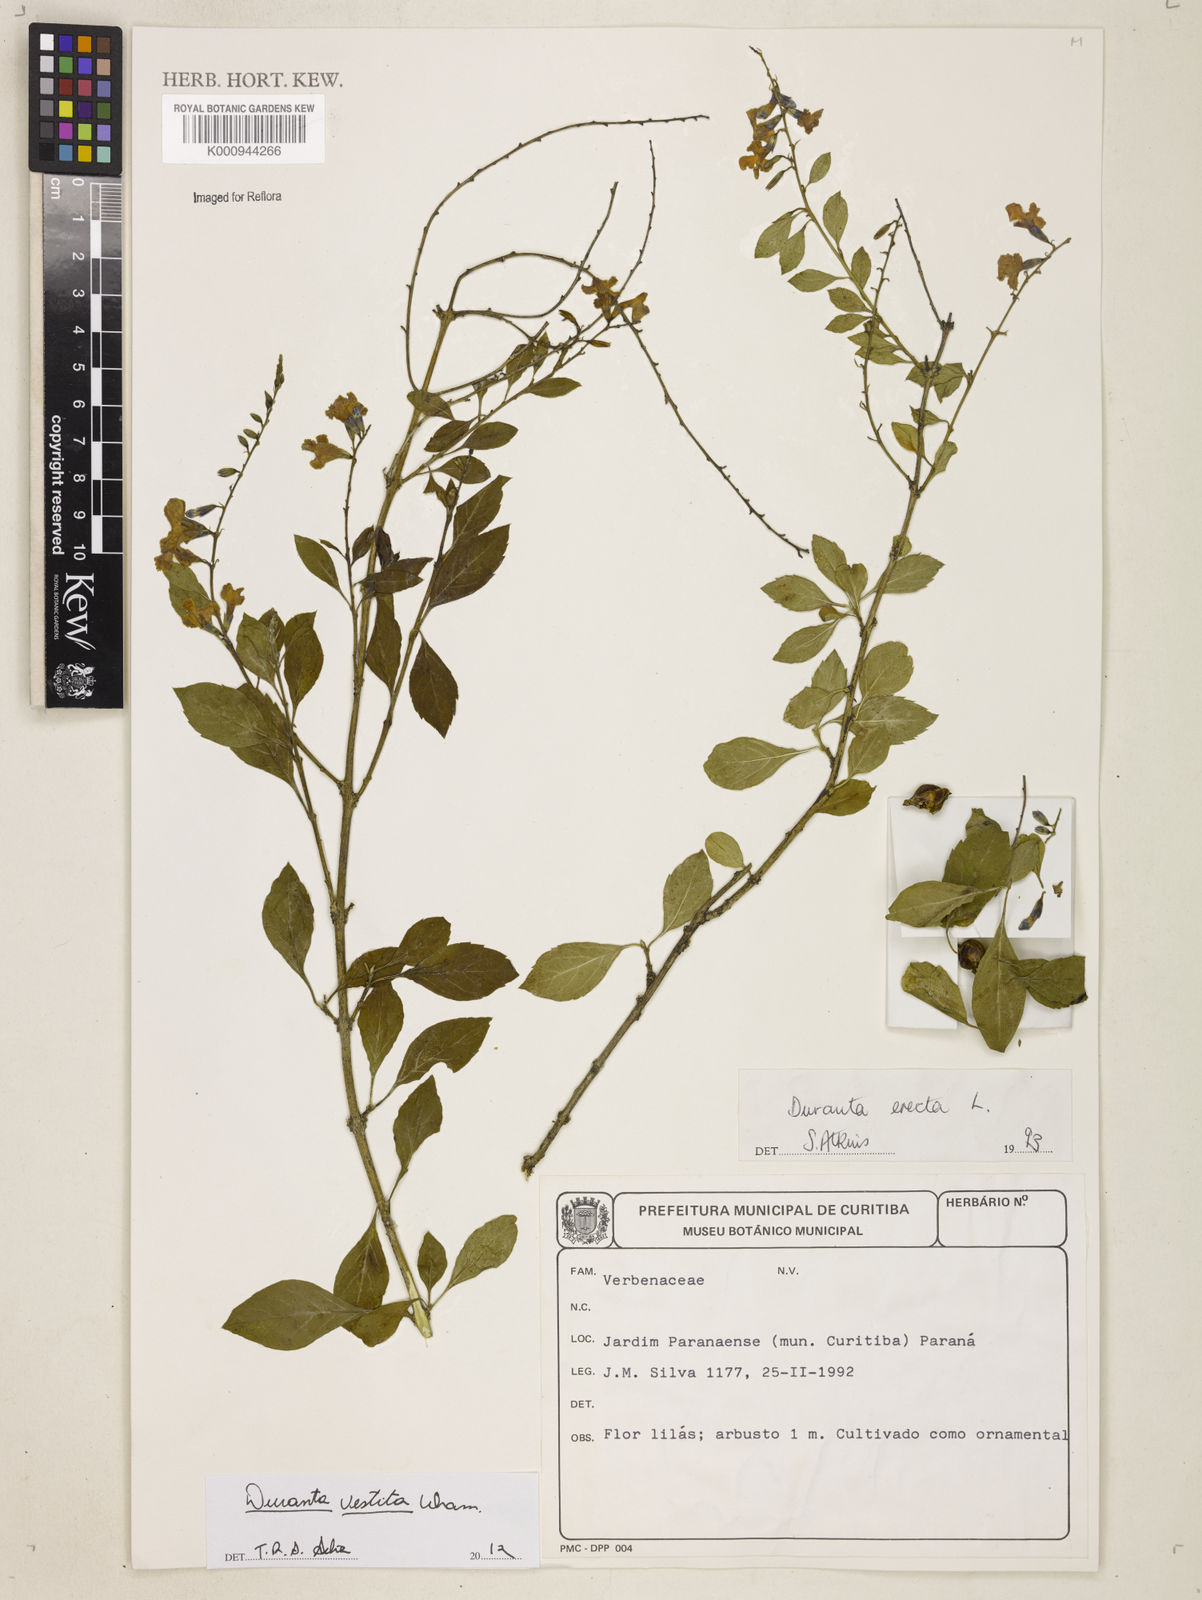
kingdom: Plantae
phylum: Tracheophyta
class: Magnoliopsida
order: Lamiales
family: Verbenaceae
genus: Citharexylum
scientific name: Citharexylum
